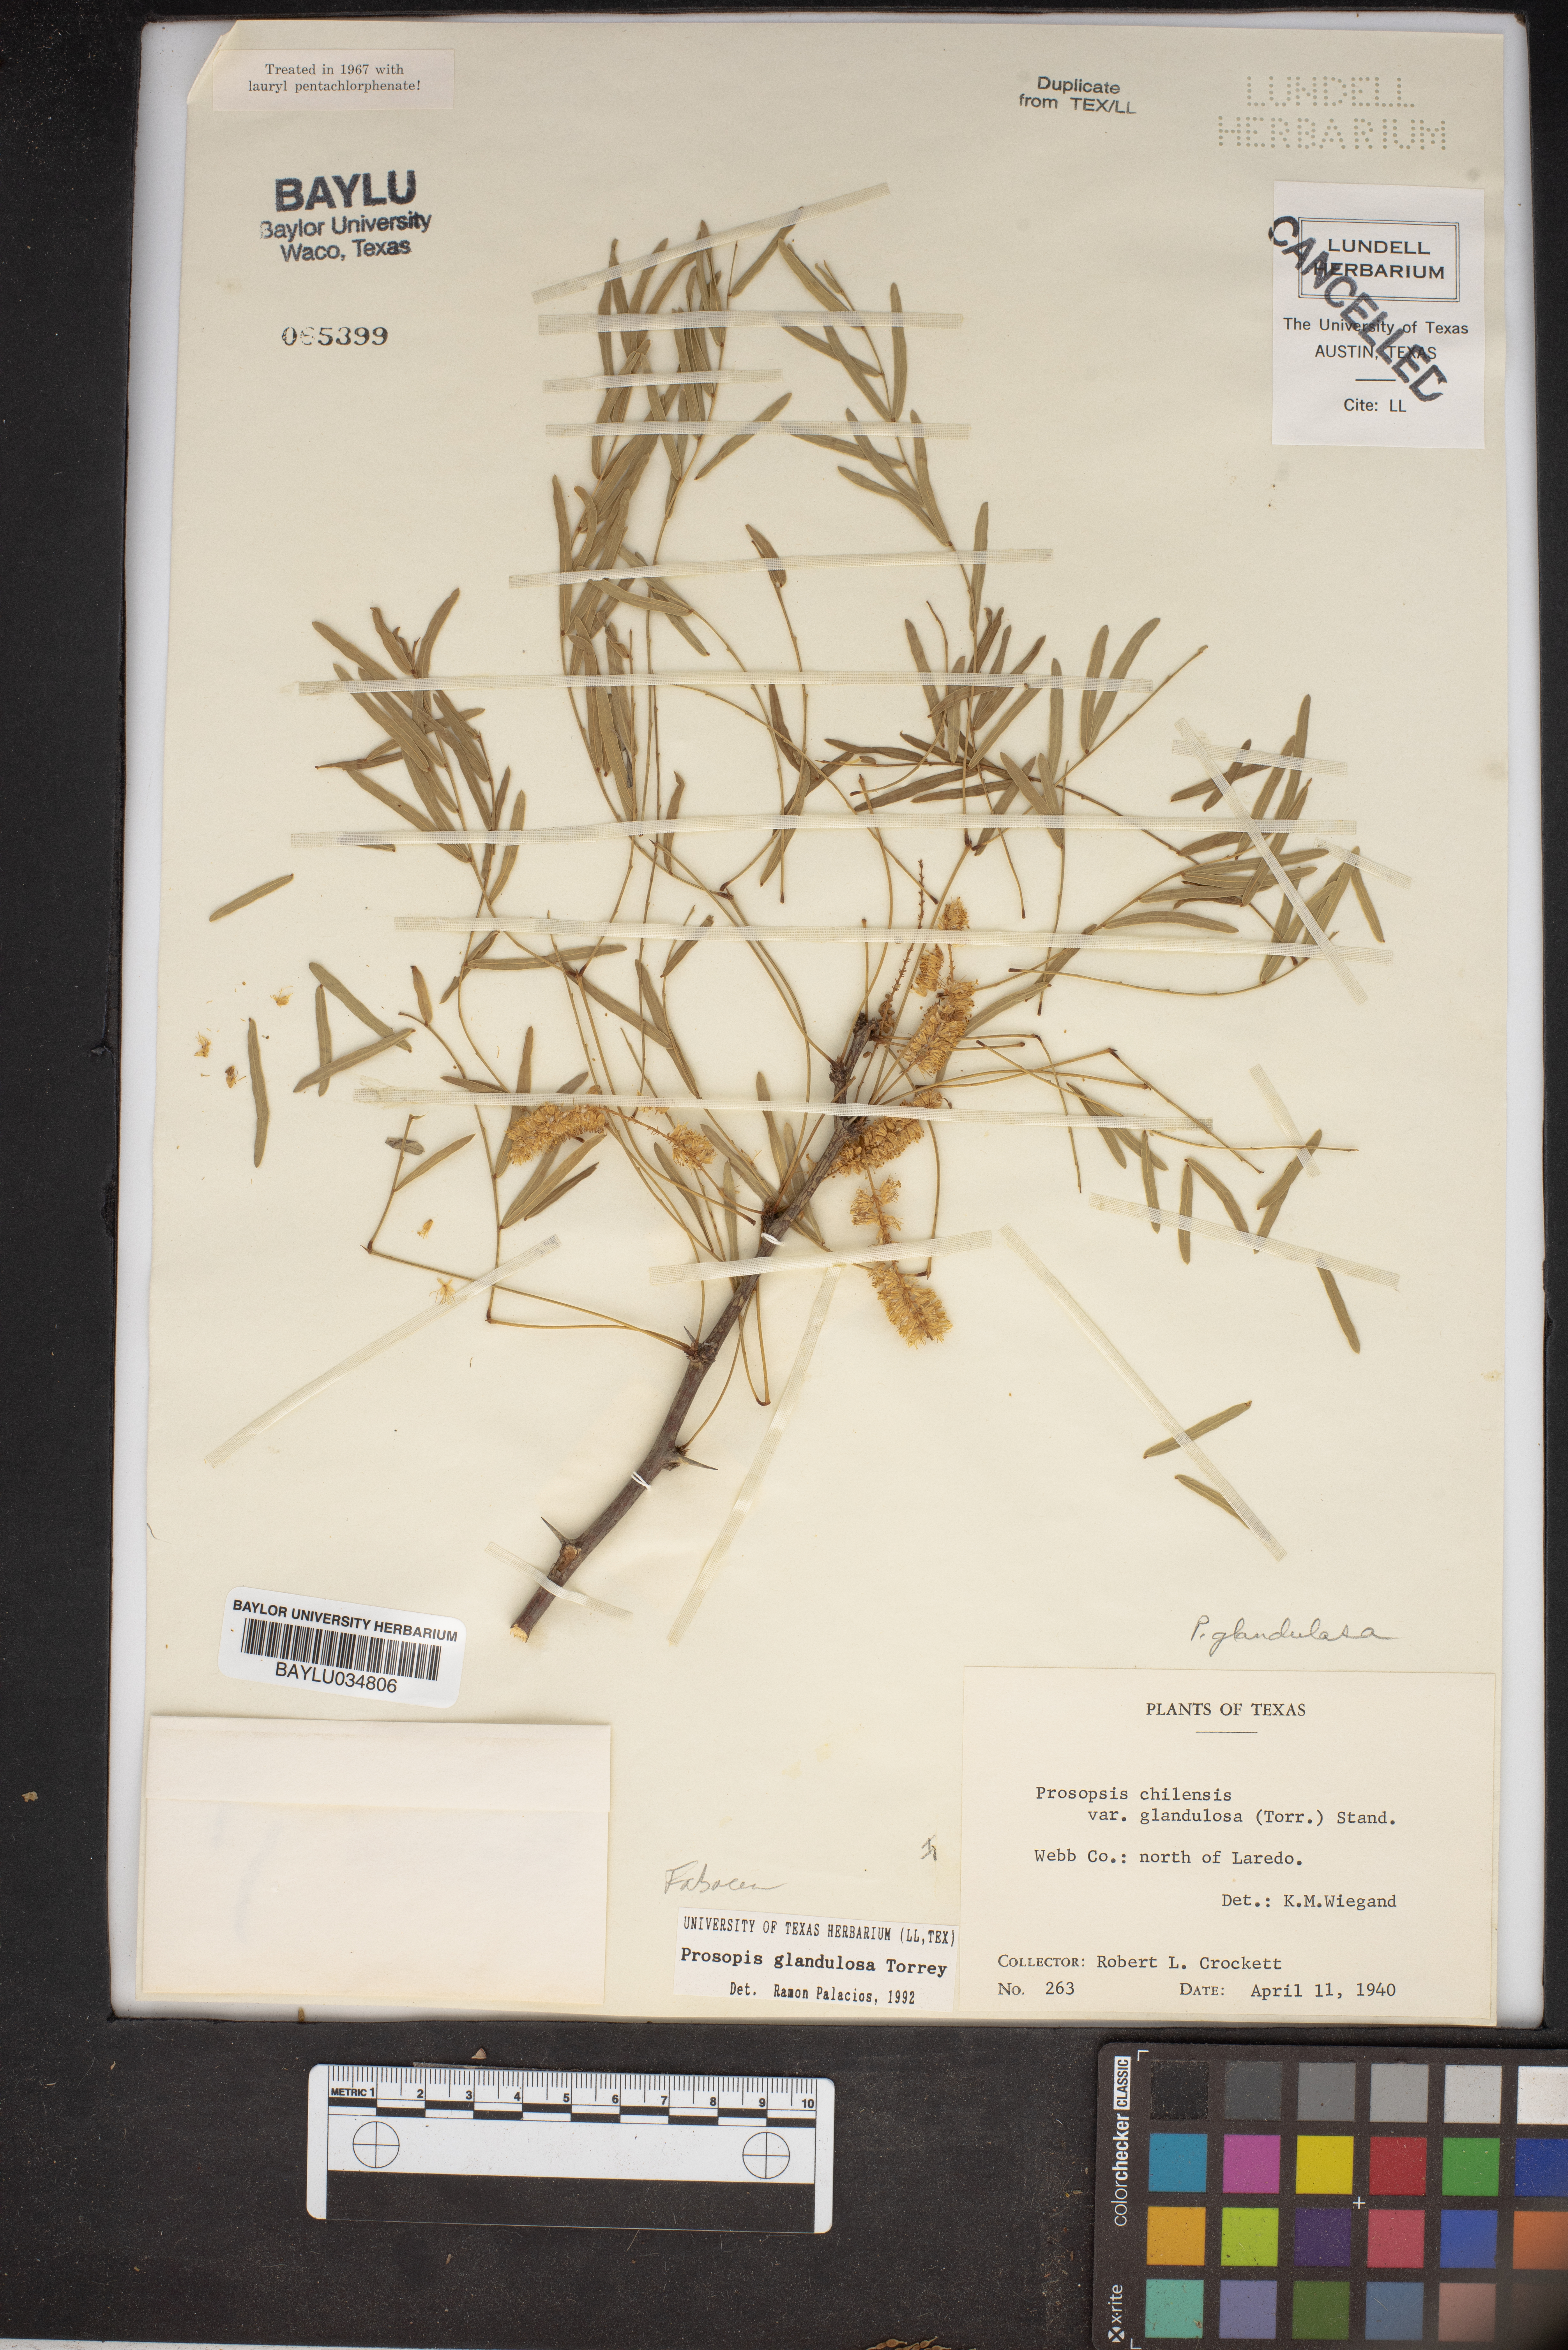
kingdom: Plantae
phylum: Tracheophyta
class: Magnoliopsida
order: Fabales
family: Fabaceae
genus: Prosopis
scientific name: Prosopis chilensis
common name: Chilean algarrobo
